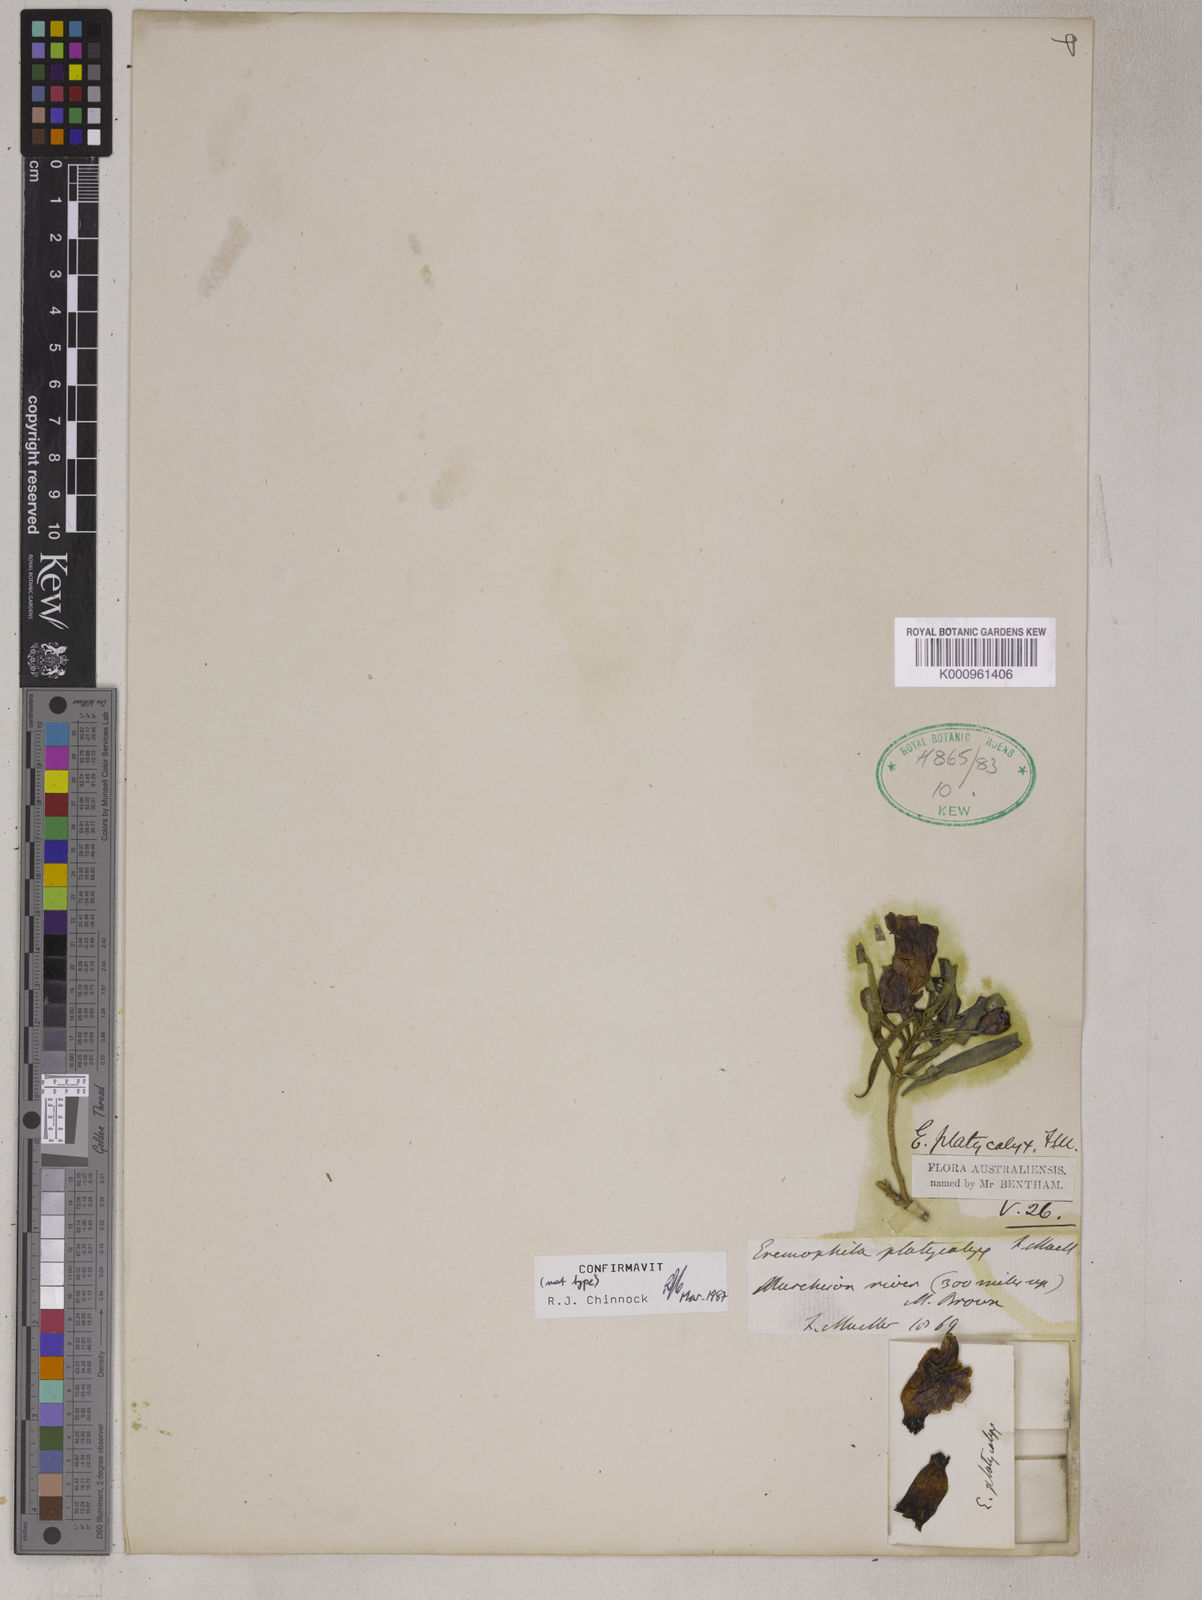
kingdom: Plantae
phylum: Tracheophyta
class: Magnoliopsida
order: Lamiales
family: Scrophulariaceae
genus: Eremophila
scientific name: Eremophila platycalyx
